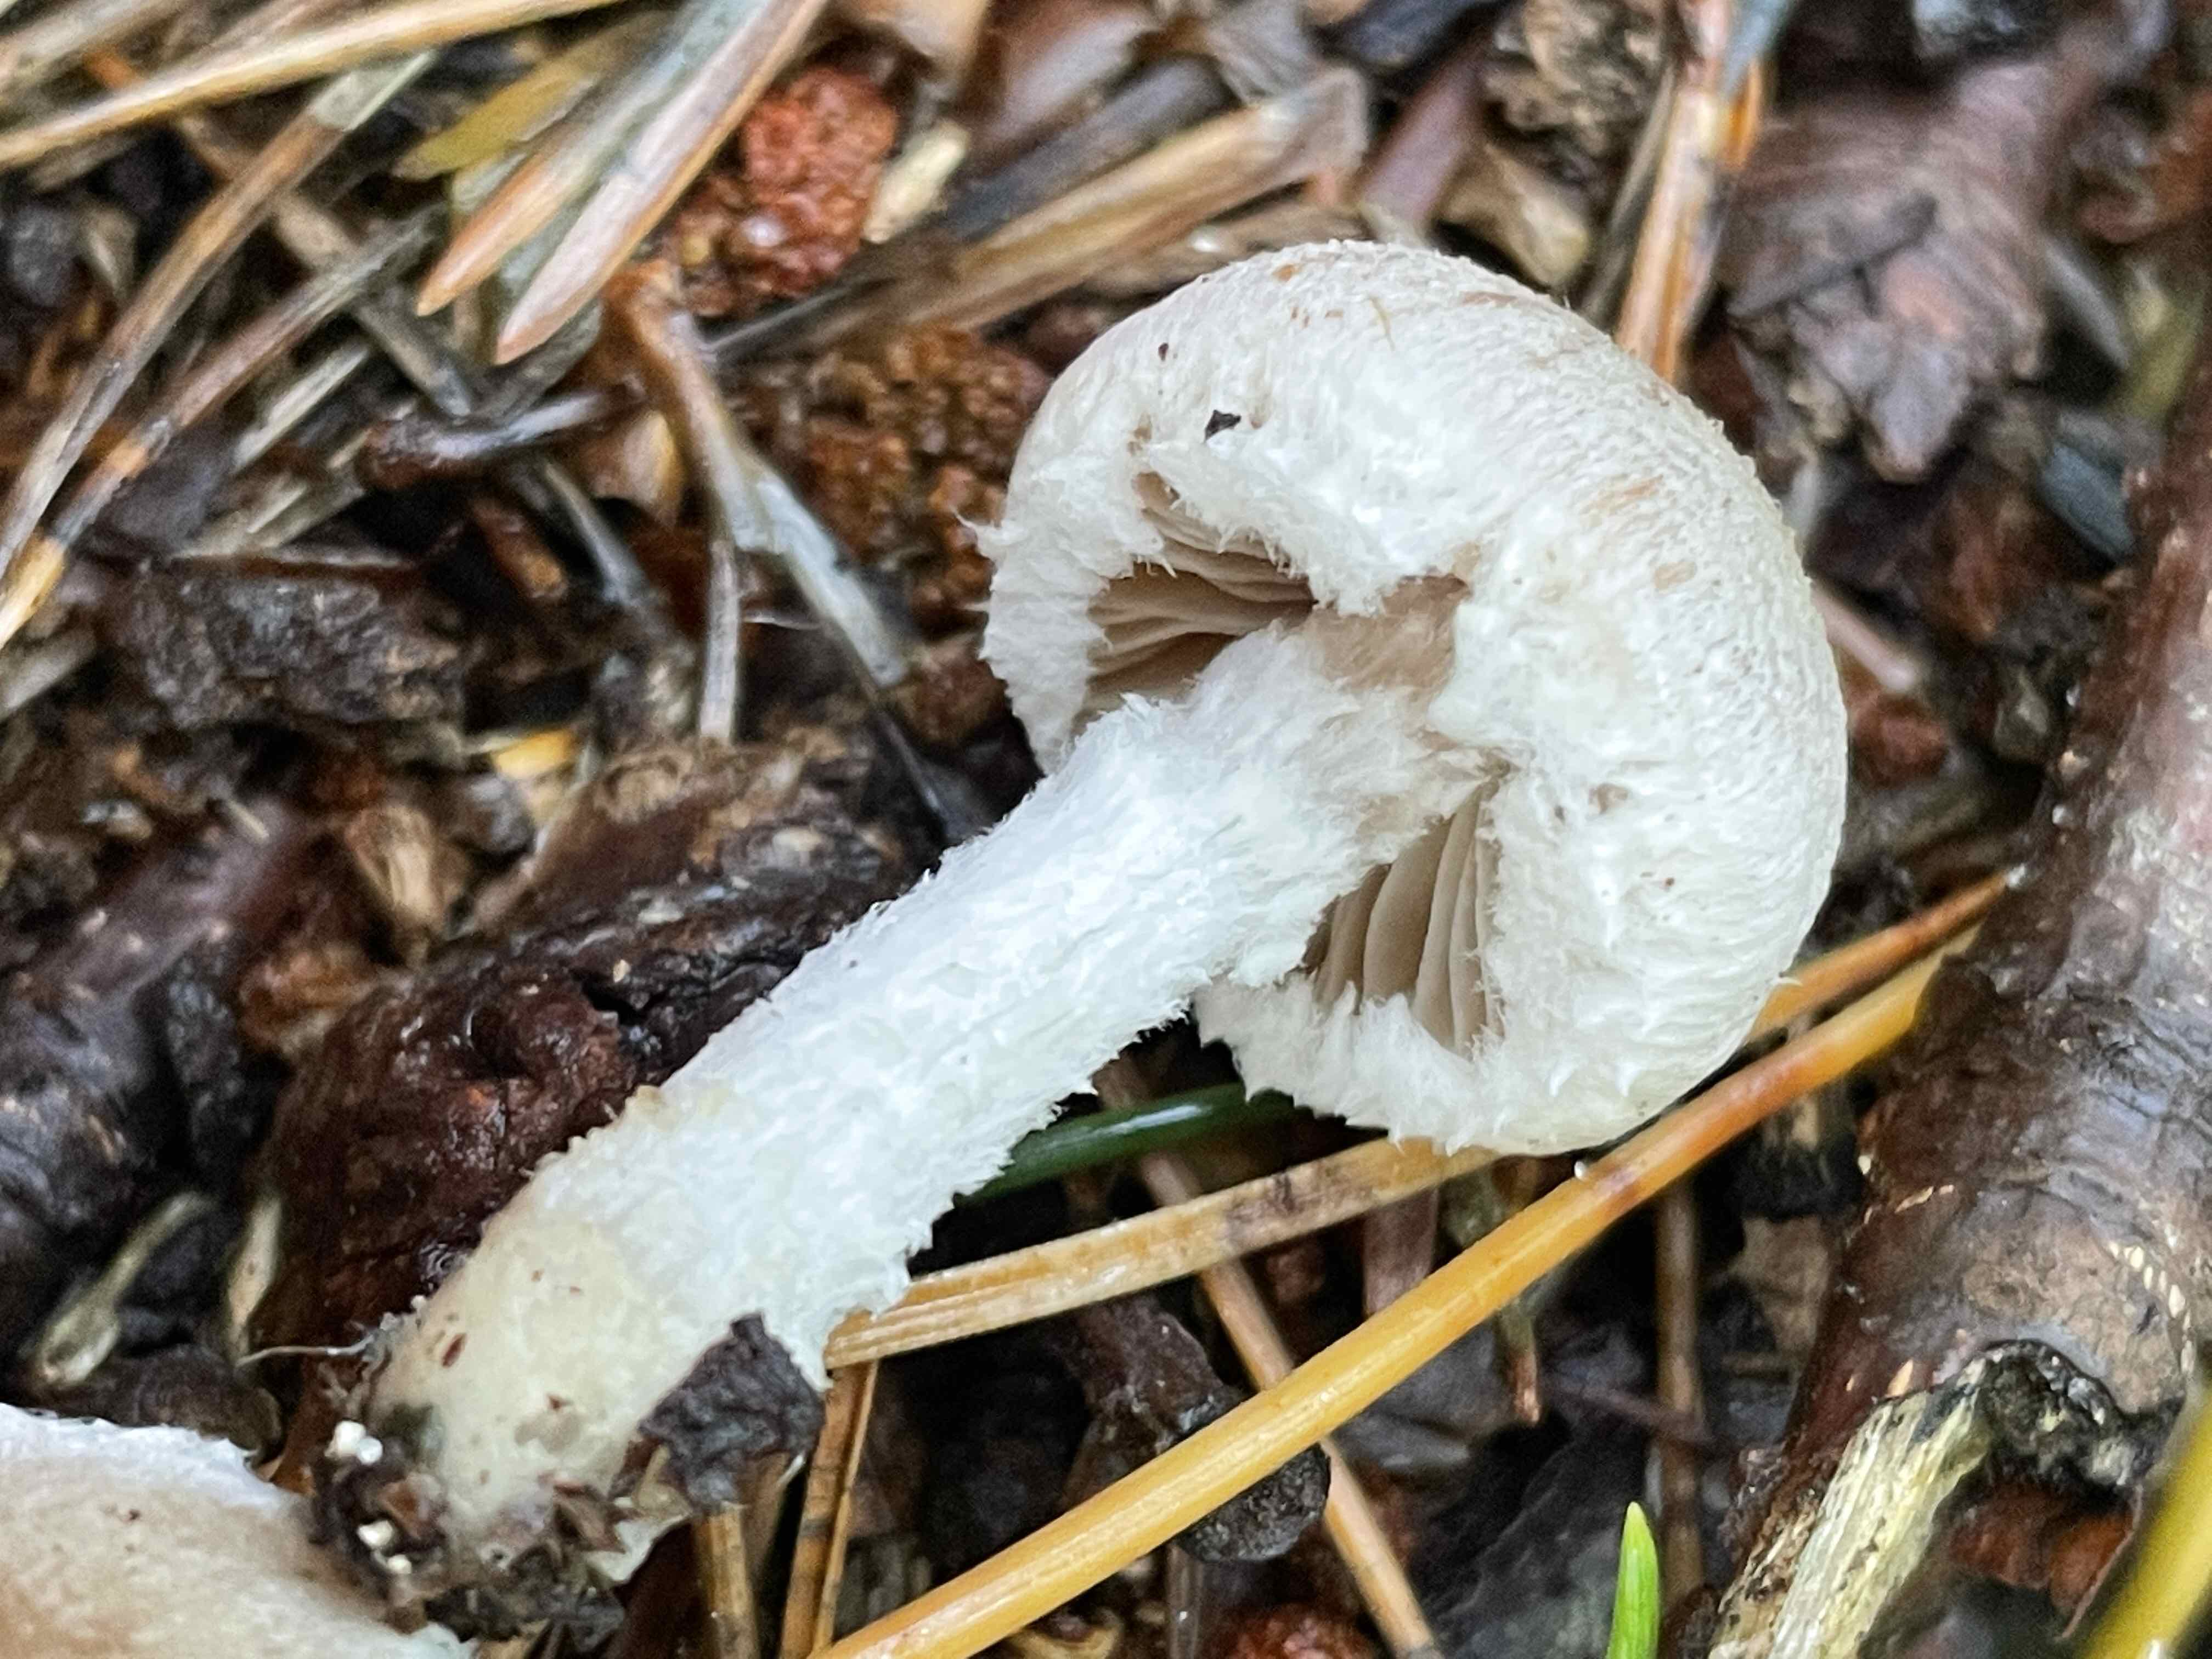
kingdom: Fungi
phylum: Basidiomycota
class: Agaricomycetes
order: Agaricales
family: Psathyrellaceae
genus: Psathyrella
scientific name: Psathyrella
